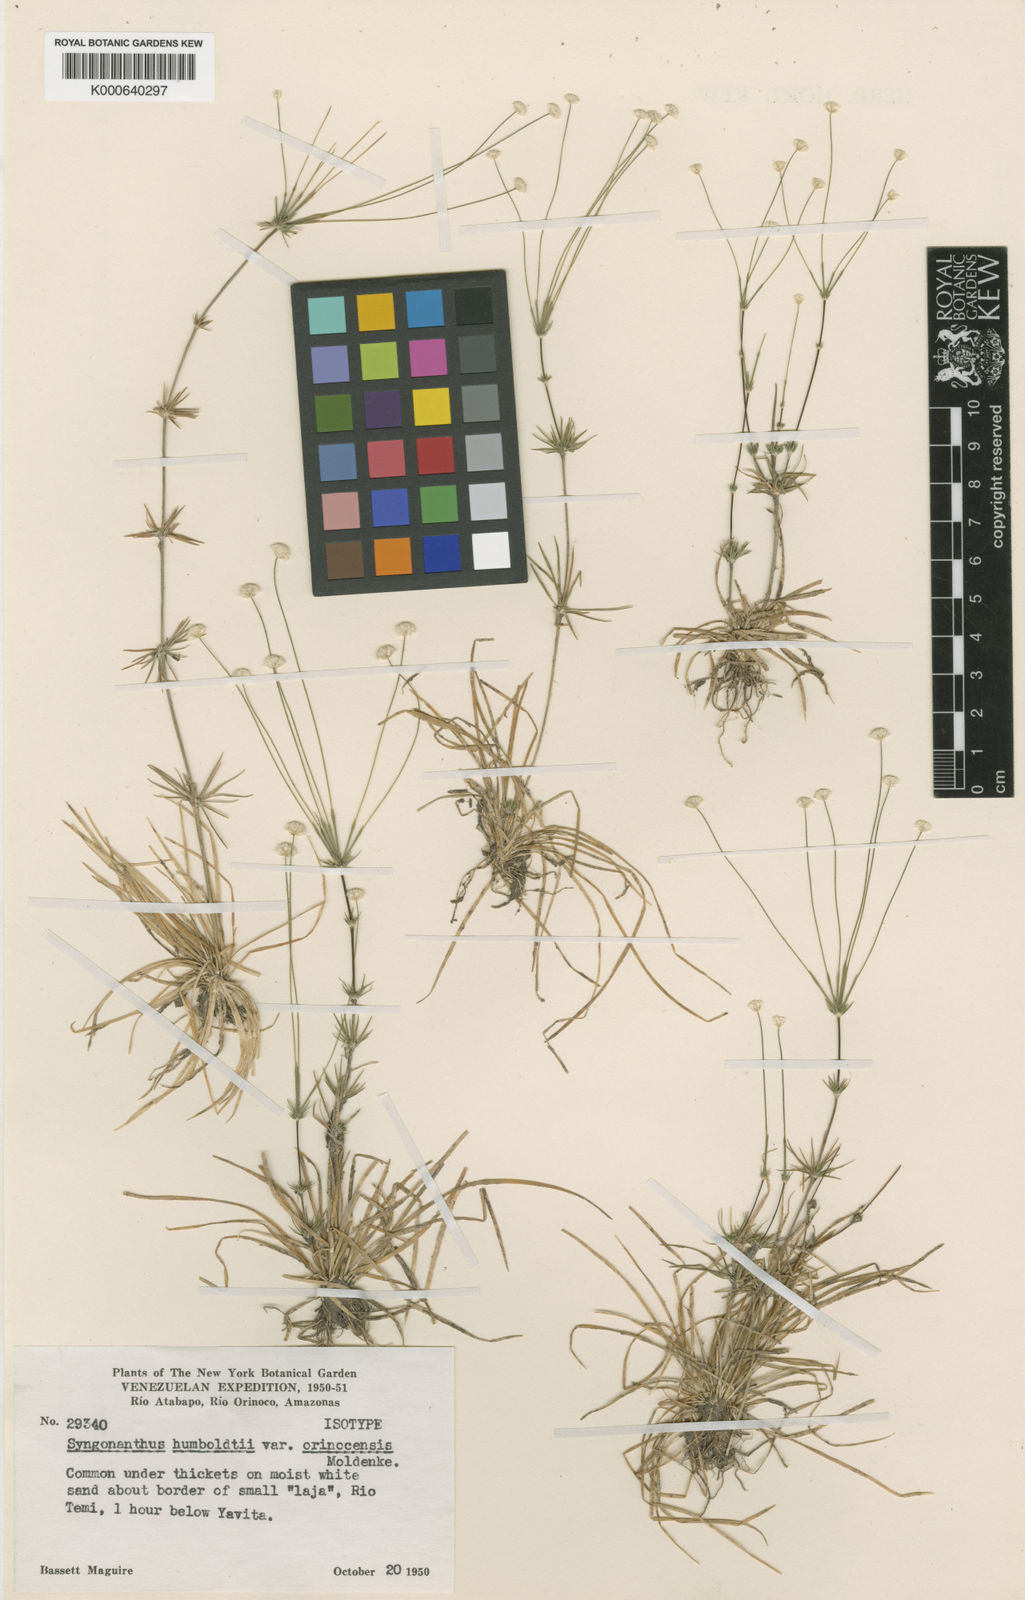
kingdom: Plantae
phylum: Tracheophyta
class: Liliopsida
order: Poales
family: Eriocaulaceae
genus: Syngonanthus
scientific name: Syngonanthus humboldtii
